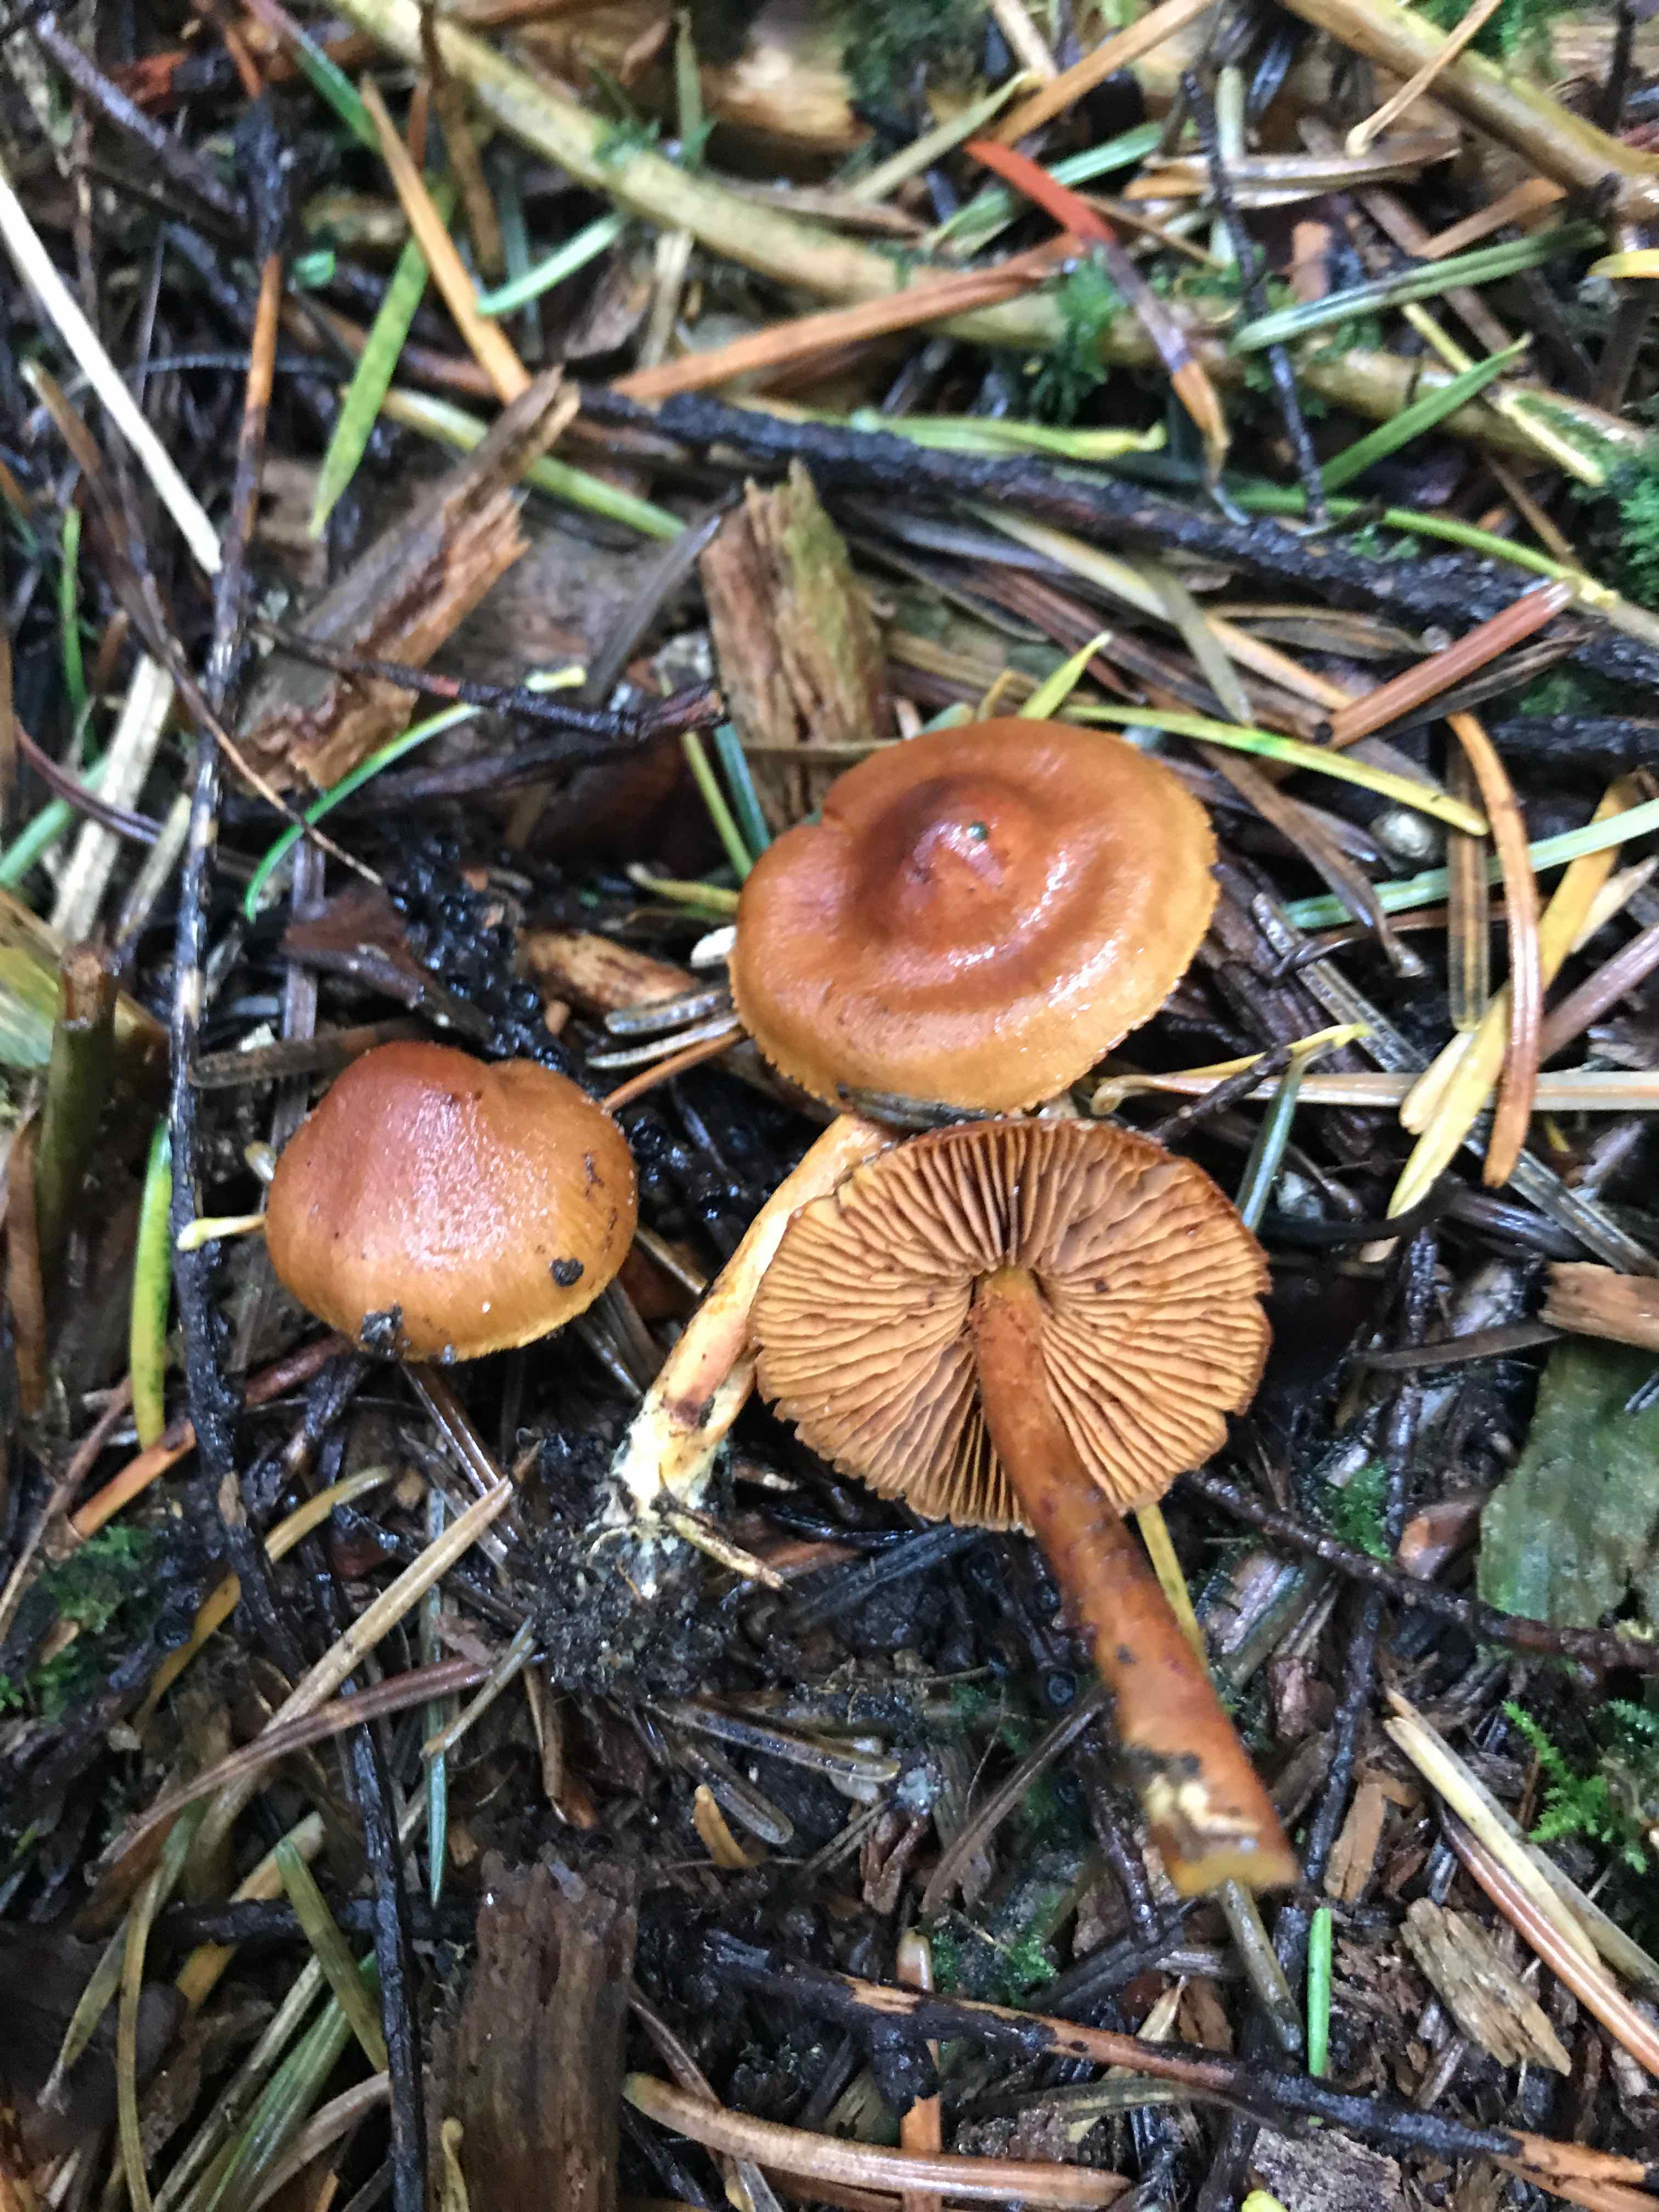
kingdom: Fungi
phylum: Basidiomycota
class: Agaricomycetes
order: Agaricales
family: Cortinariaceae
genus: Cortinarius
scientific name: Cortinarius
